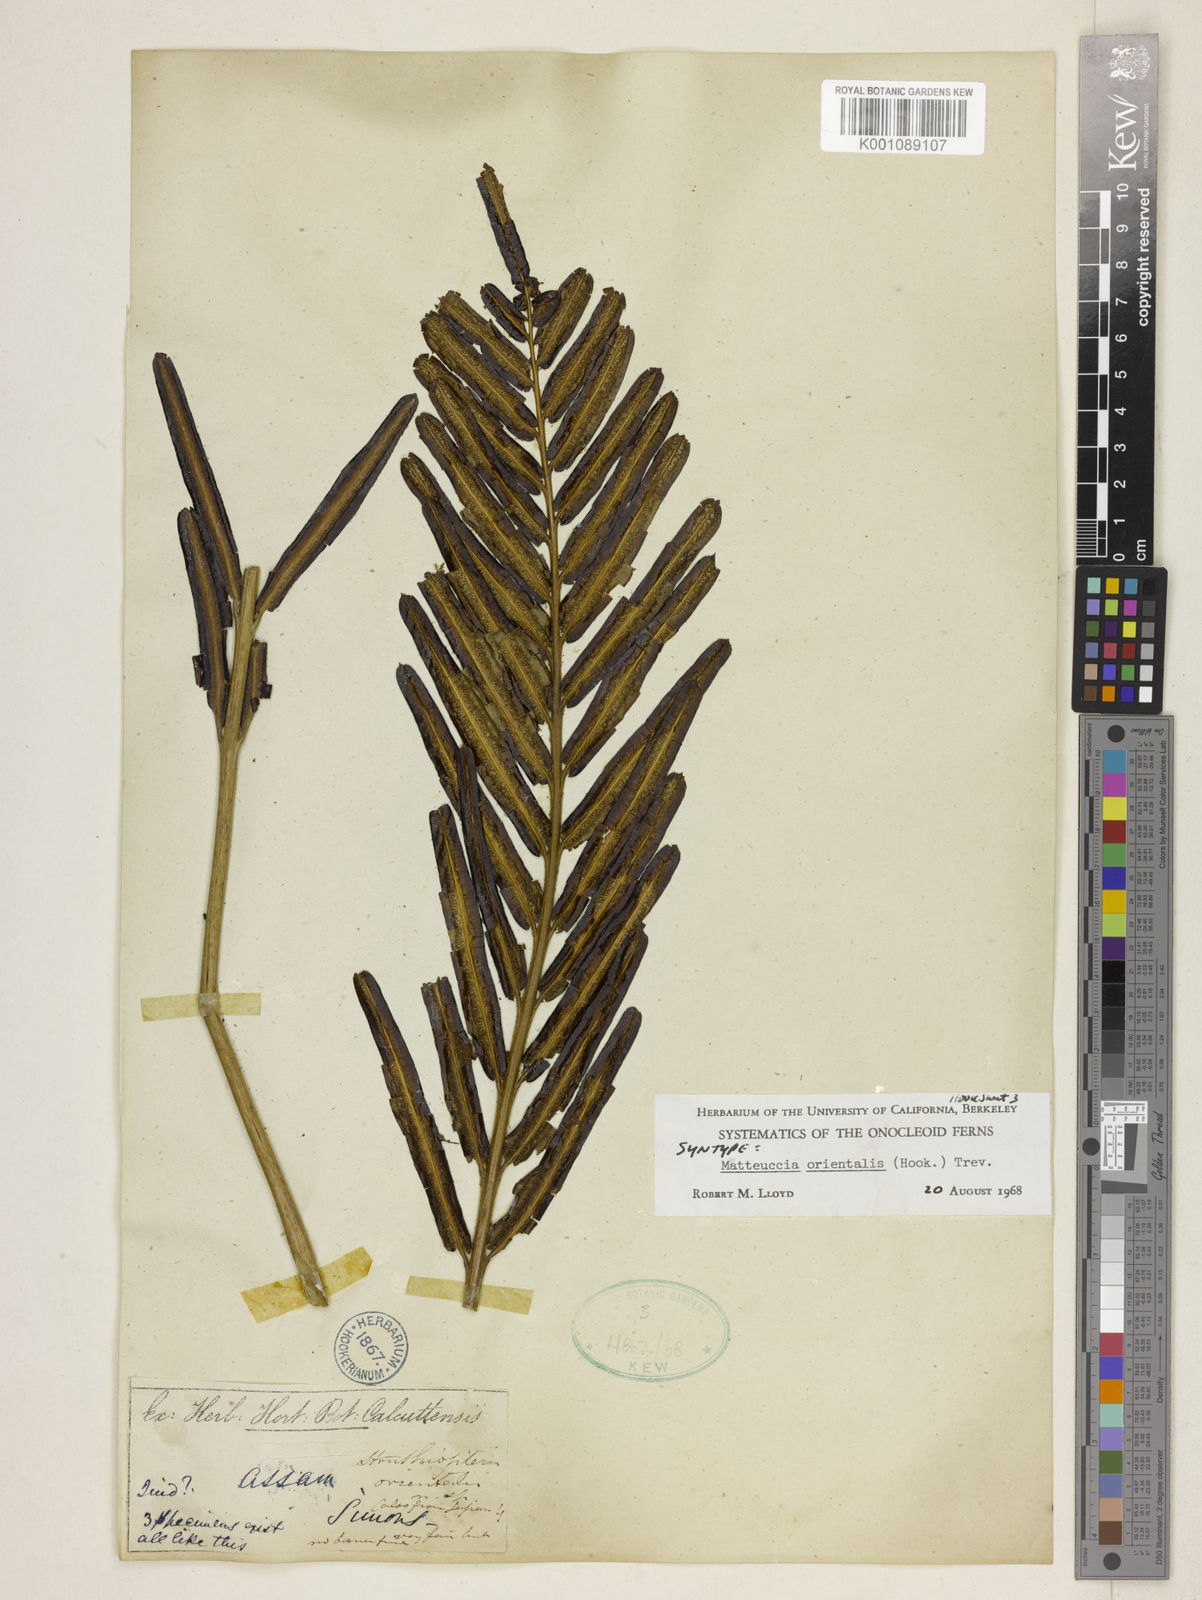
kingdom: Plantae
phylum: Tracheophyta
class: Polypodiopsida
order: Polypodiales
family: Onocleaceae
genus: Pentarhizidium
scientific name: Pentarhizidium orientale
